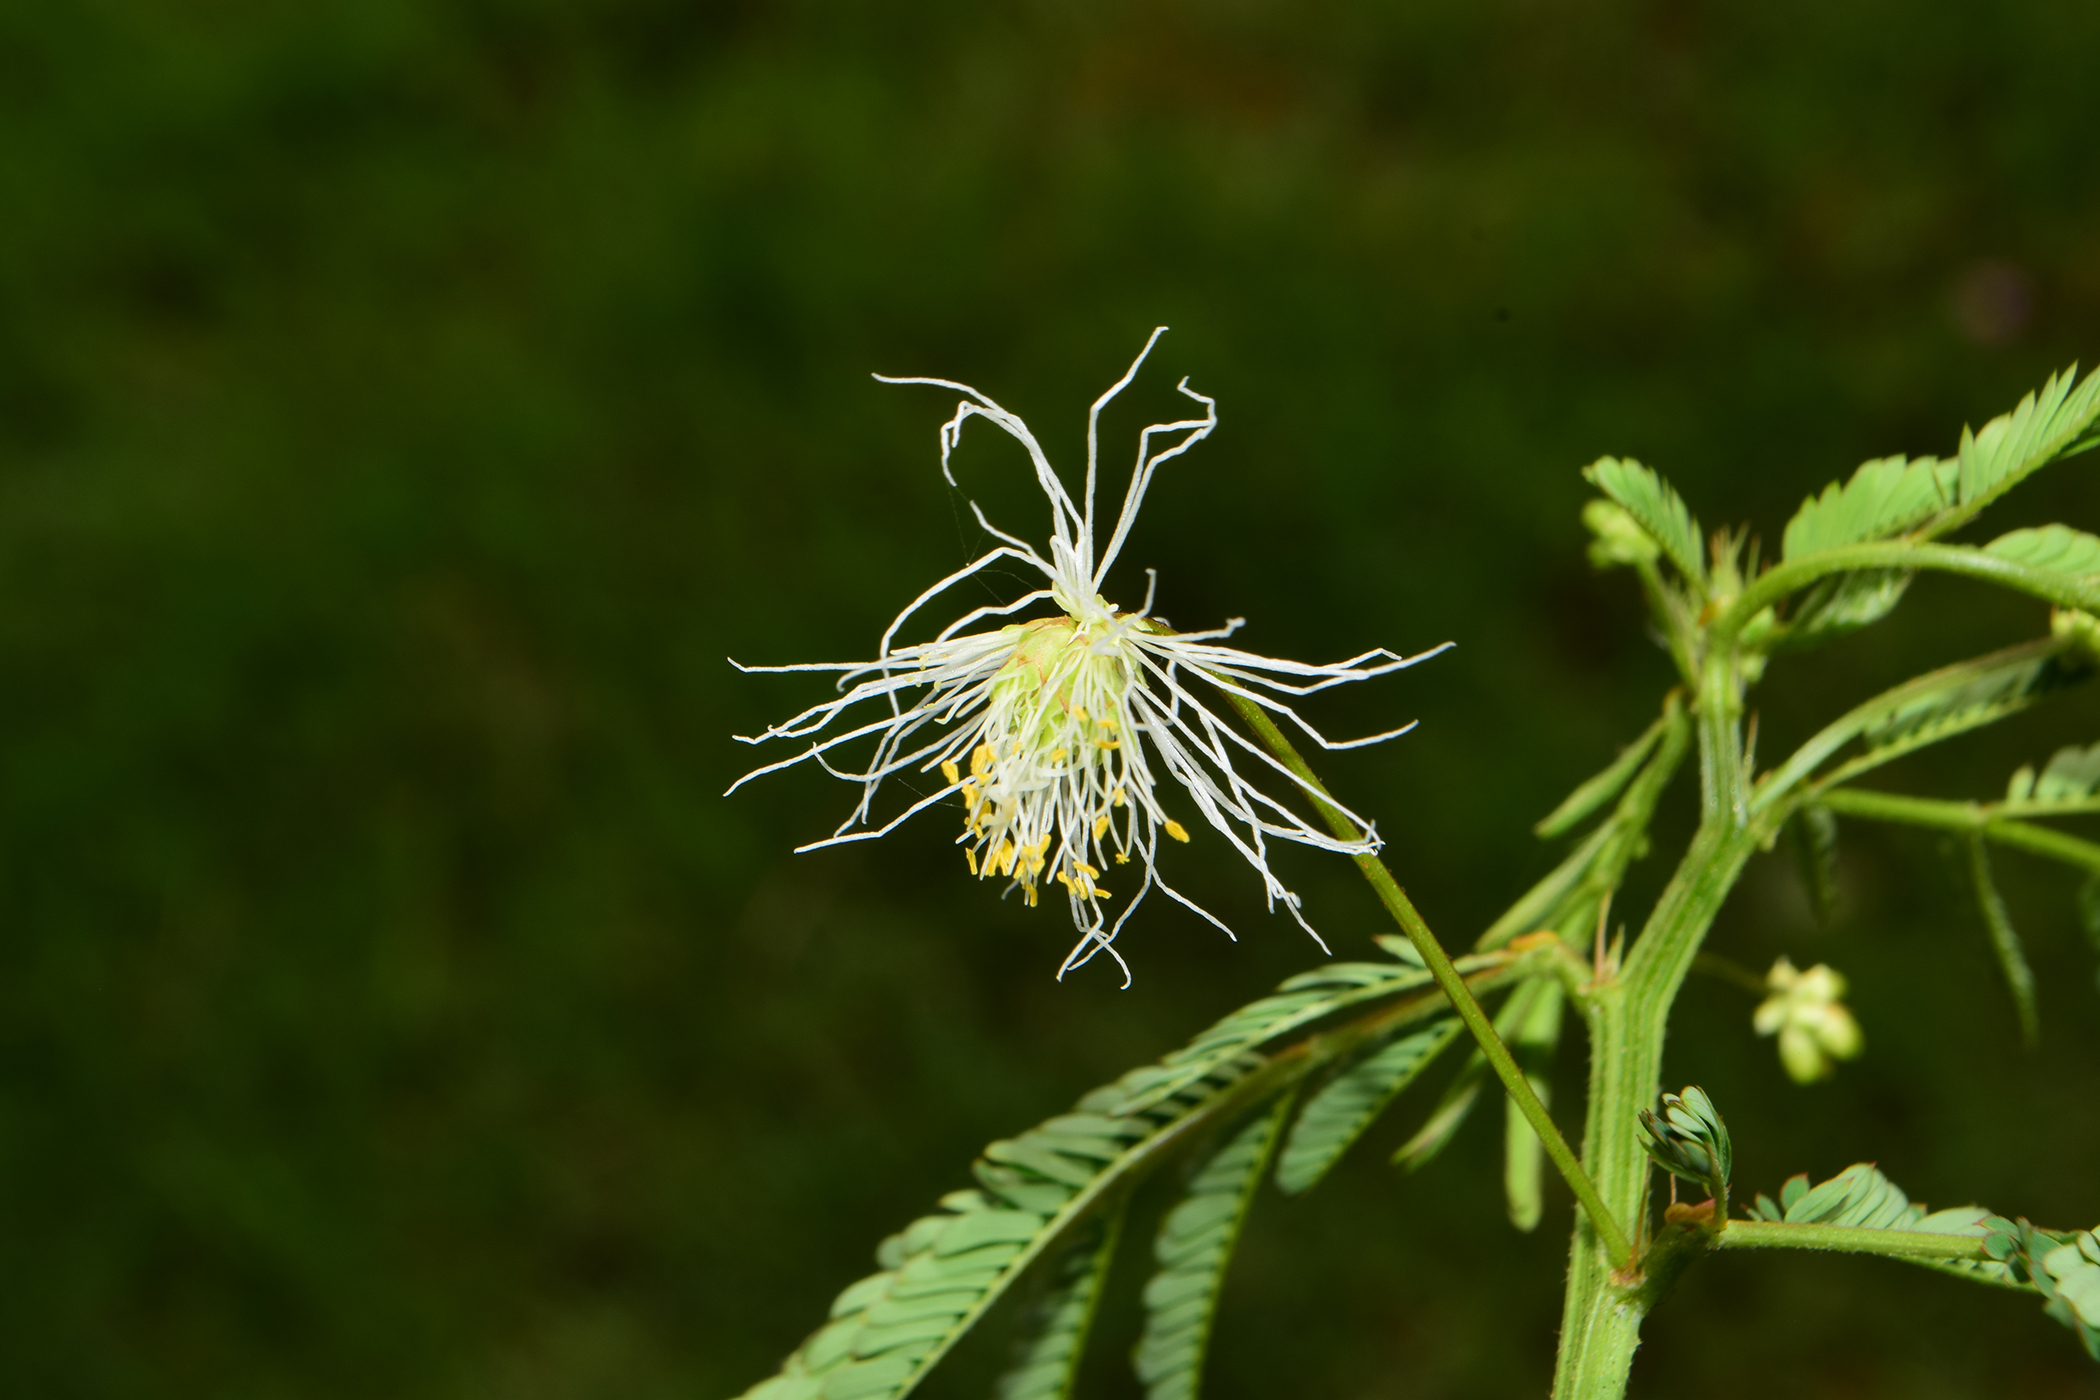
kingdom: Plantae
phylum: Tracheophyta
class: Magnoliopsida
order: Fabales
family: Fabaceae
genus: Desmanthus
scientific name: Desmanthus virgatus
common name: Wild tantan
